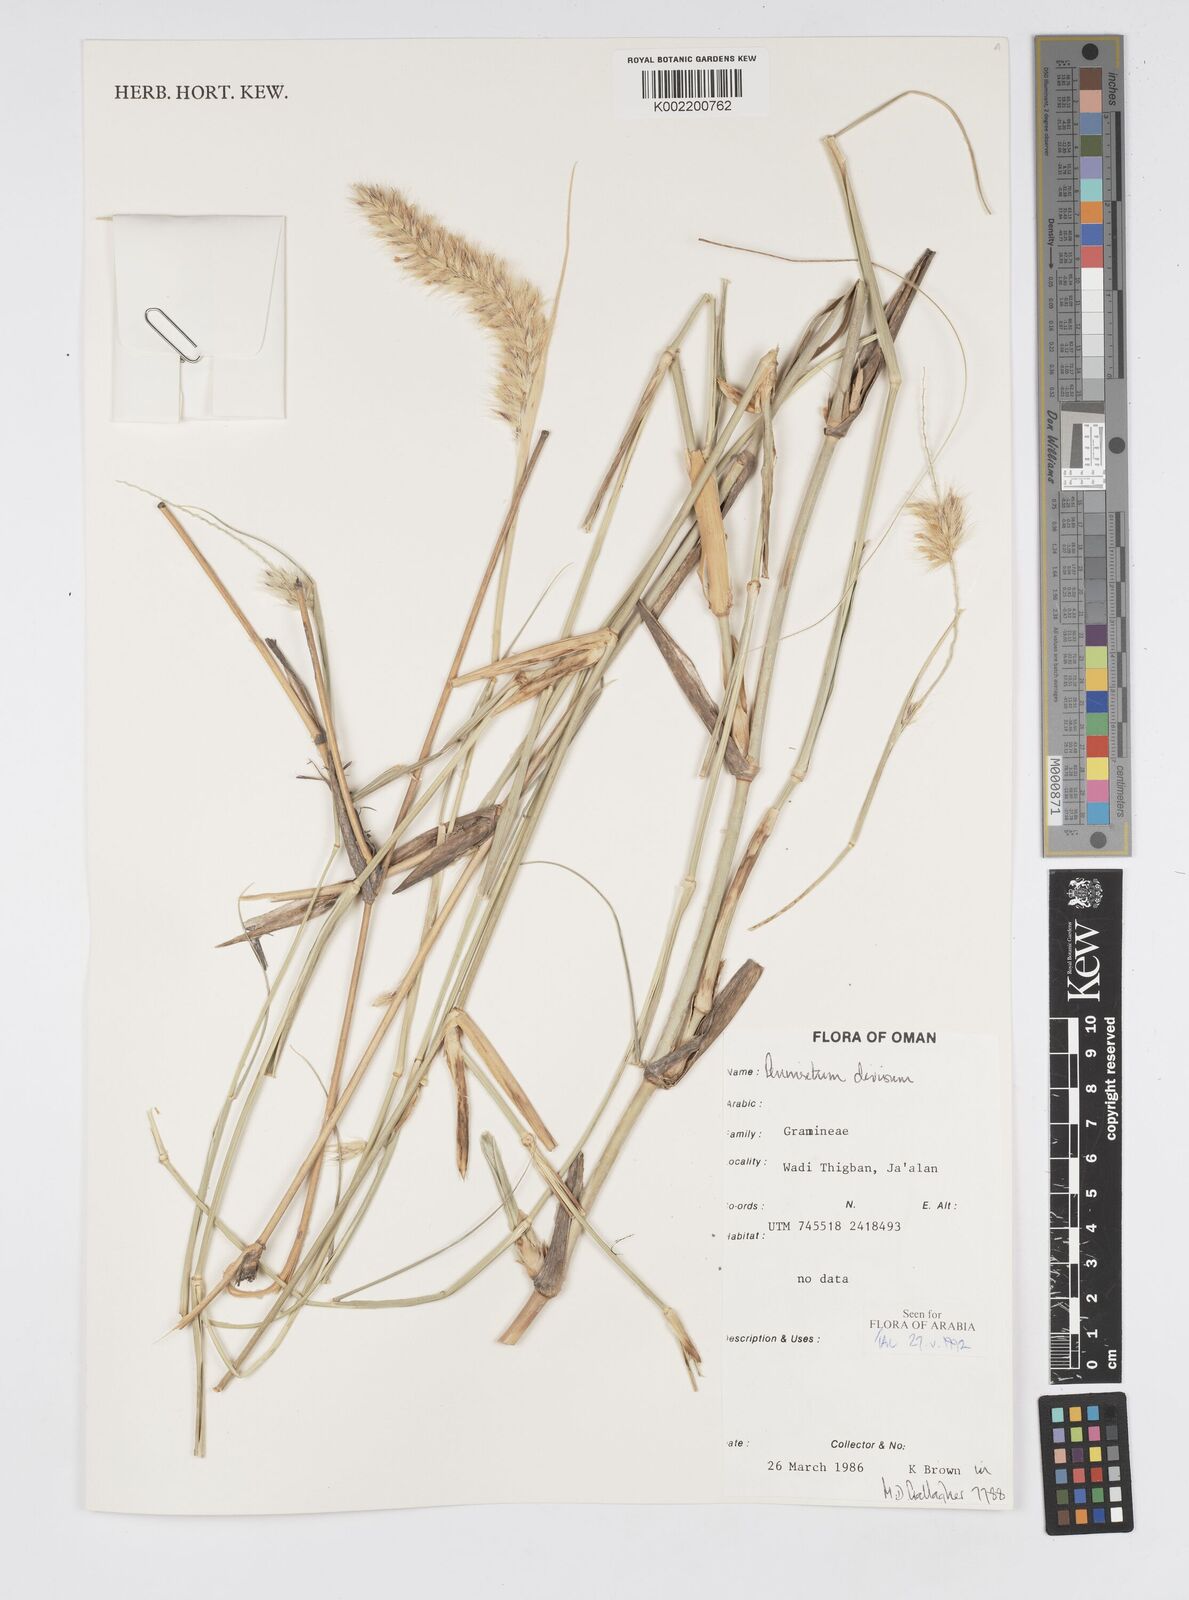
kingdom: Plantae
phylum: Tracheophyta
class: Liliopsida
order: Poales
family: Poaceae
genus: Cenchrus
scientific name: Cenchrus divisus
